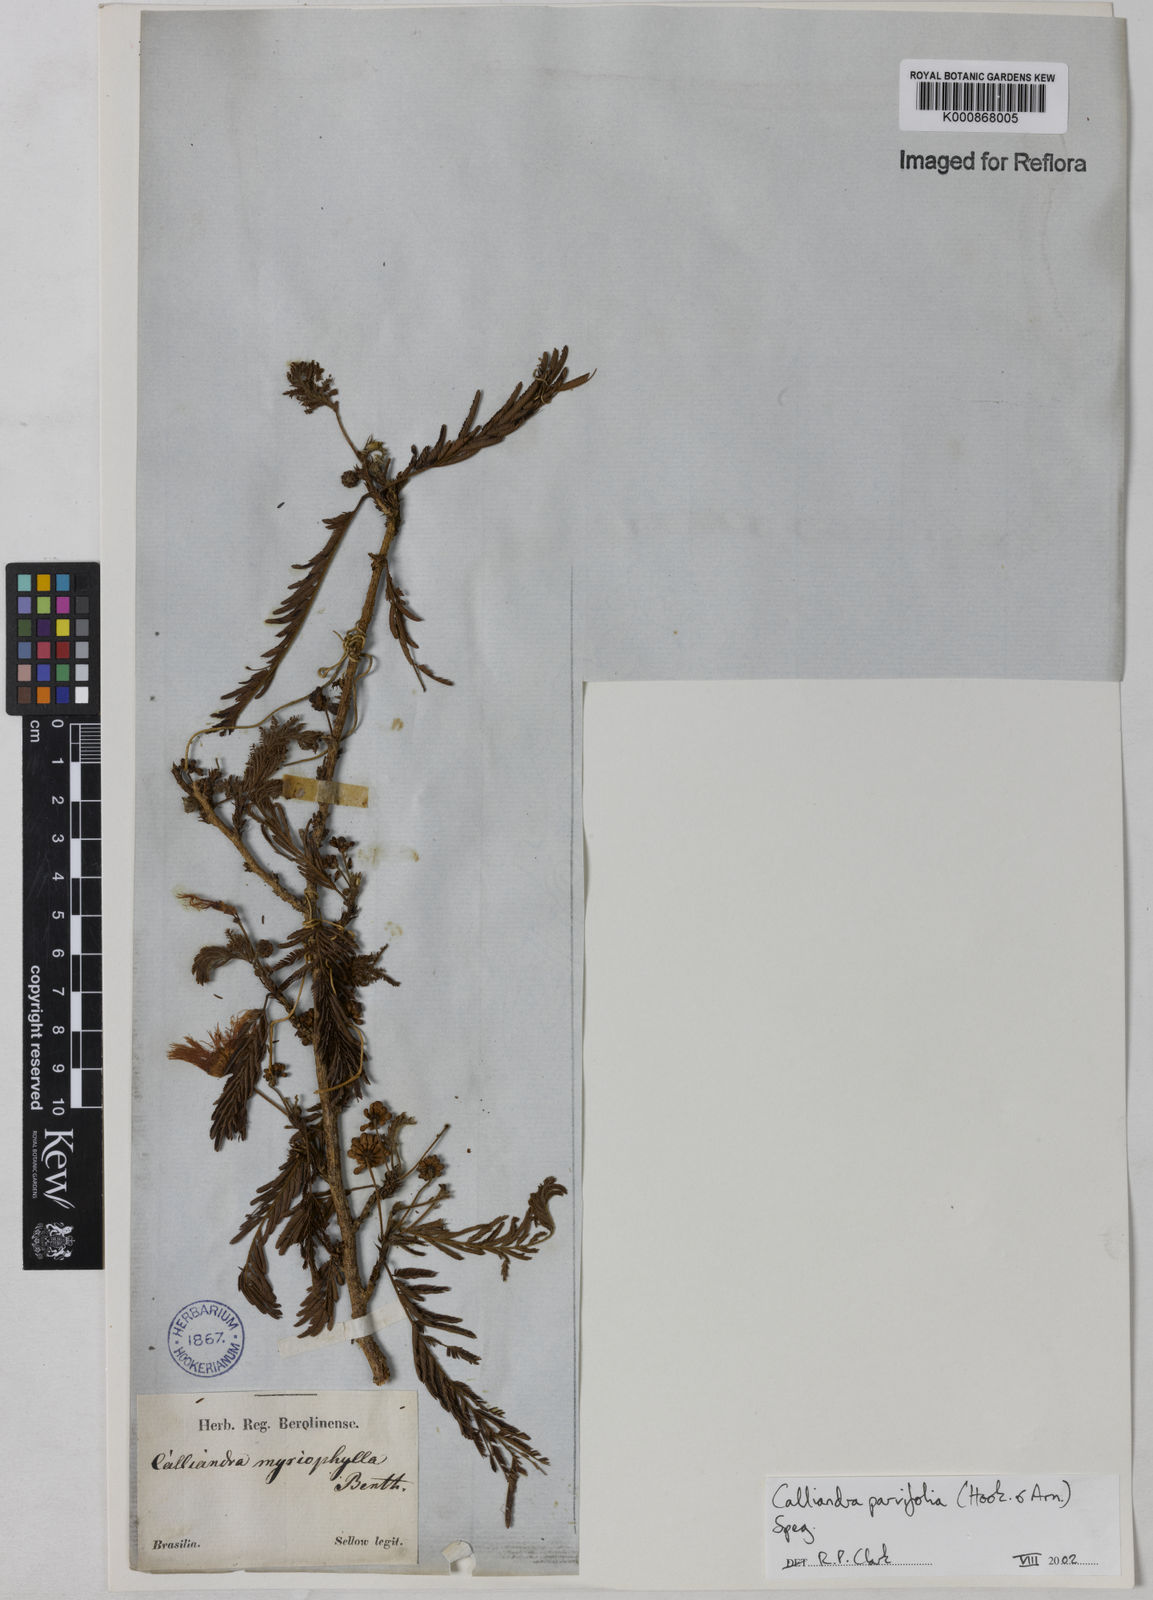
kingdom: Plantae
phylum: Tracheophyta
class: Magnoliopsida
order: Fabales
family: Fabaceae
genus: Calliandra
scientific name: Calliandra parvifolia
